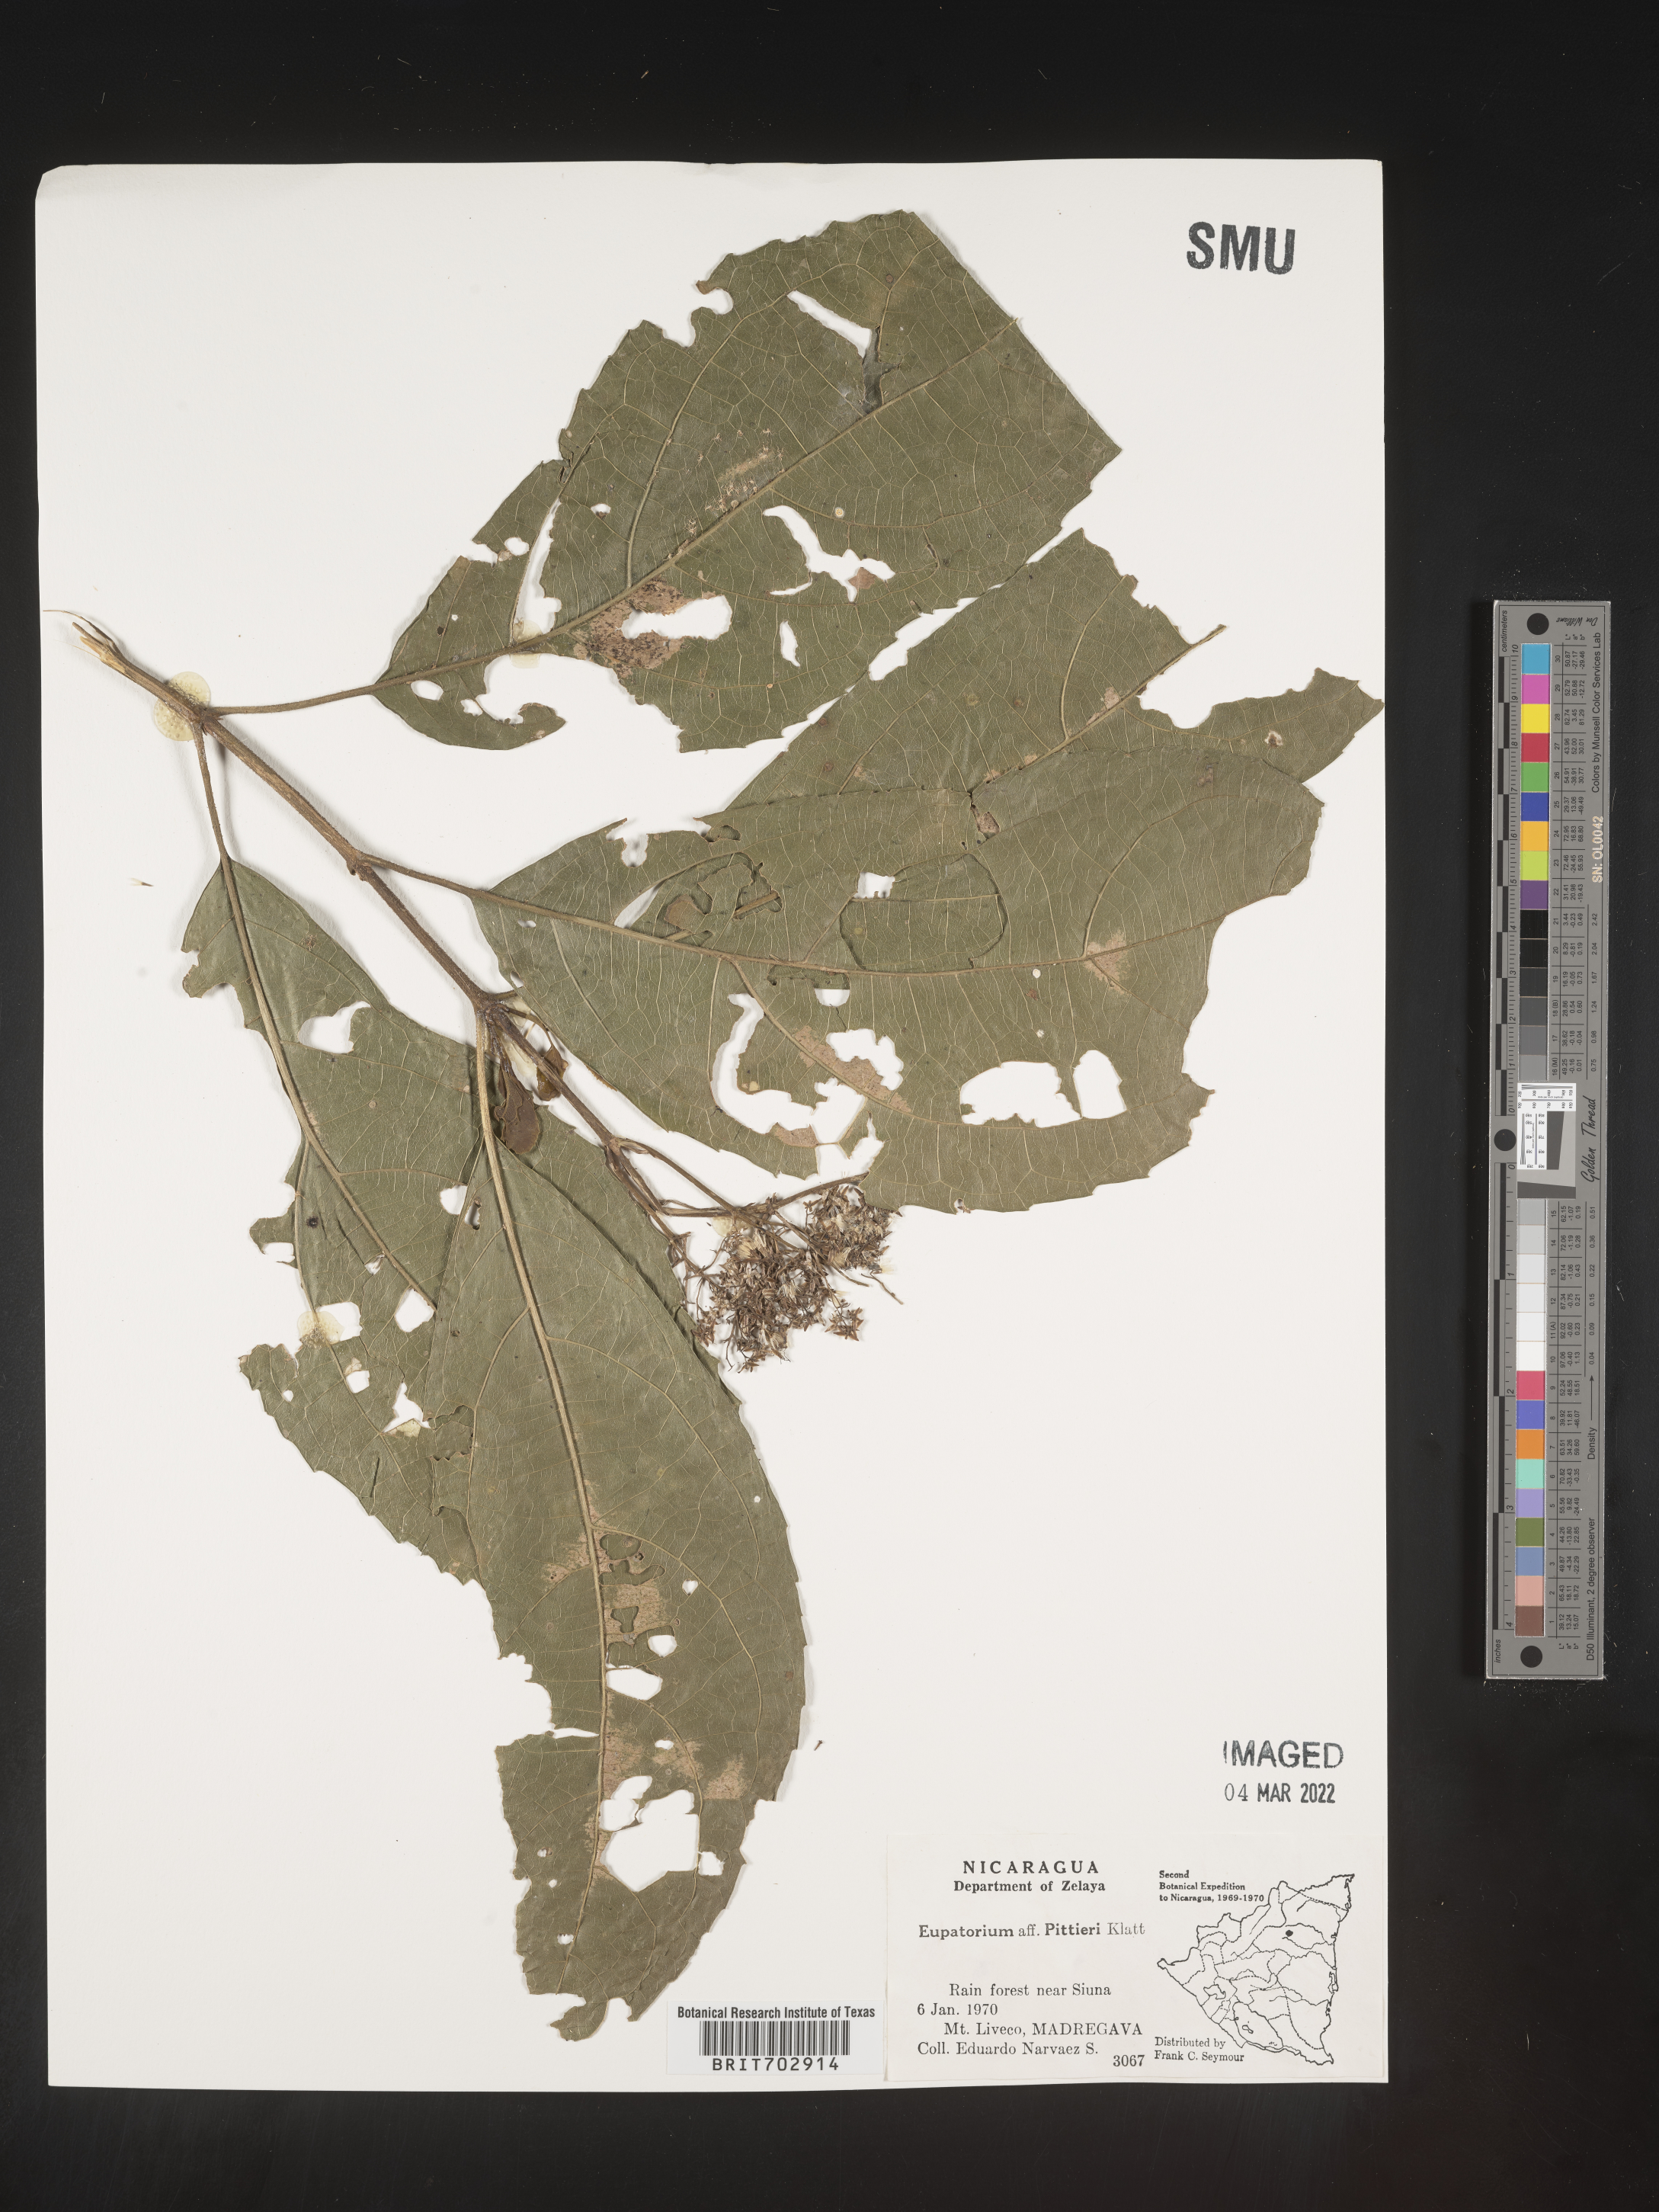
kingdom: Plantae
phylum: Tracheophyta
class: Magnoliopsida
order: Asterales
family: Asteraceae
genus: Eupatorium
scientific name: Eupatorium
